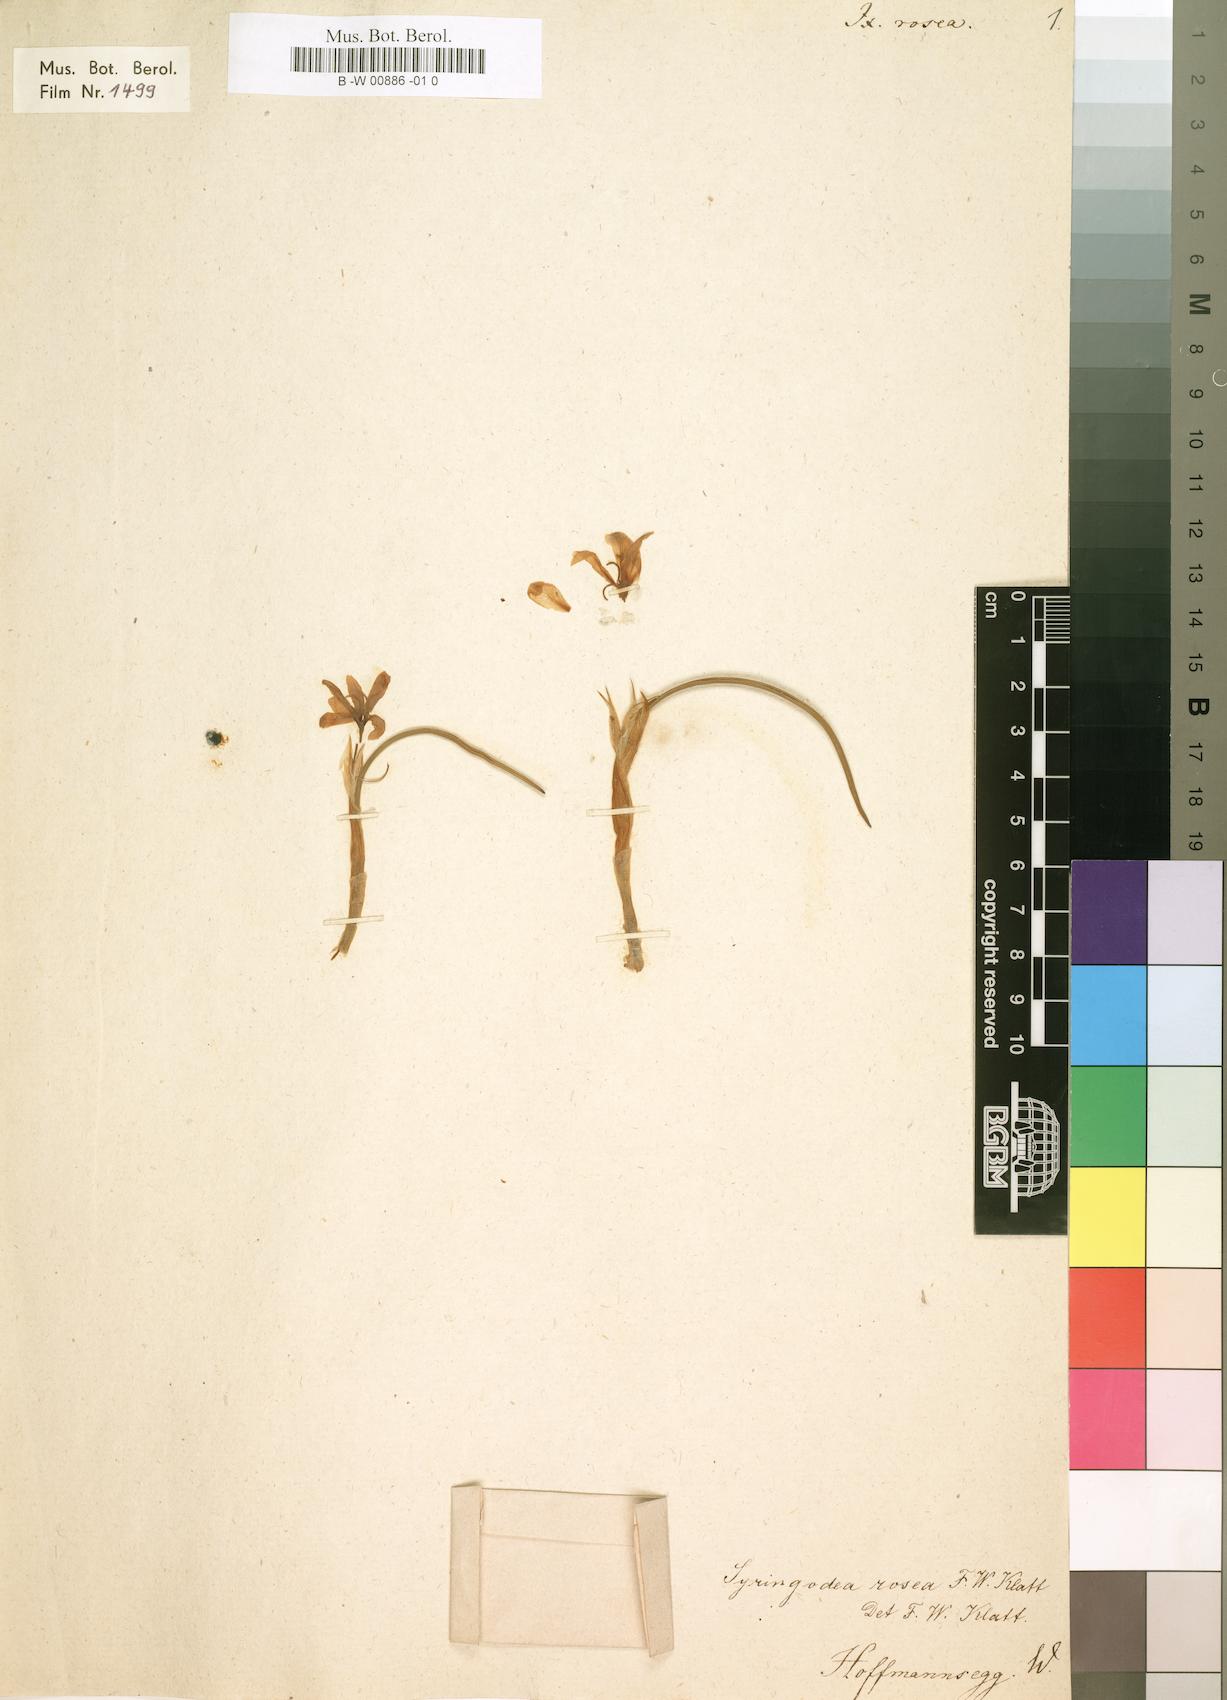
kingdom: Plantae
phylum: Tracheophyta
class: Liliopsida
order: Asparagales
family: Iridaceae
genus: Romulea
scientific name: Romulea rosea
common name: Oniongrass
